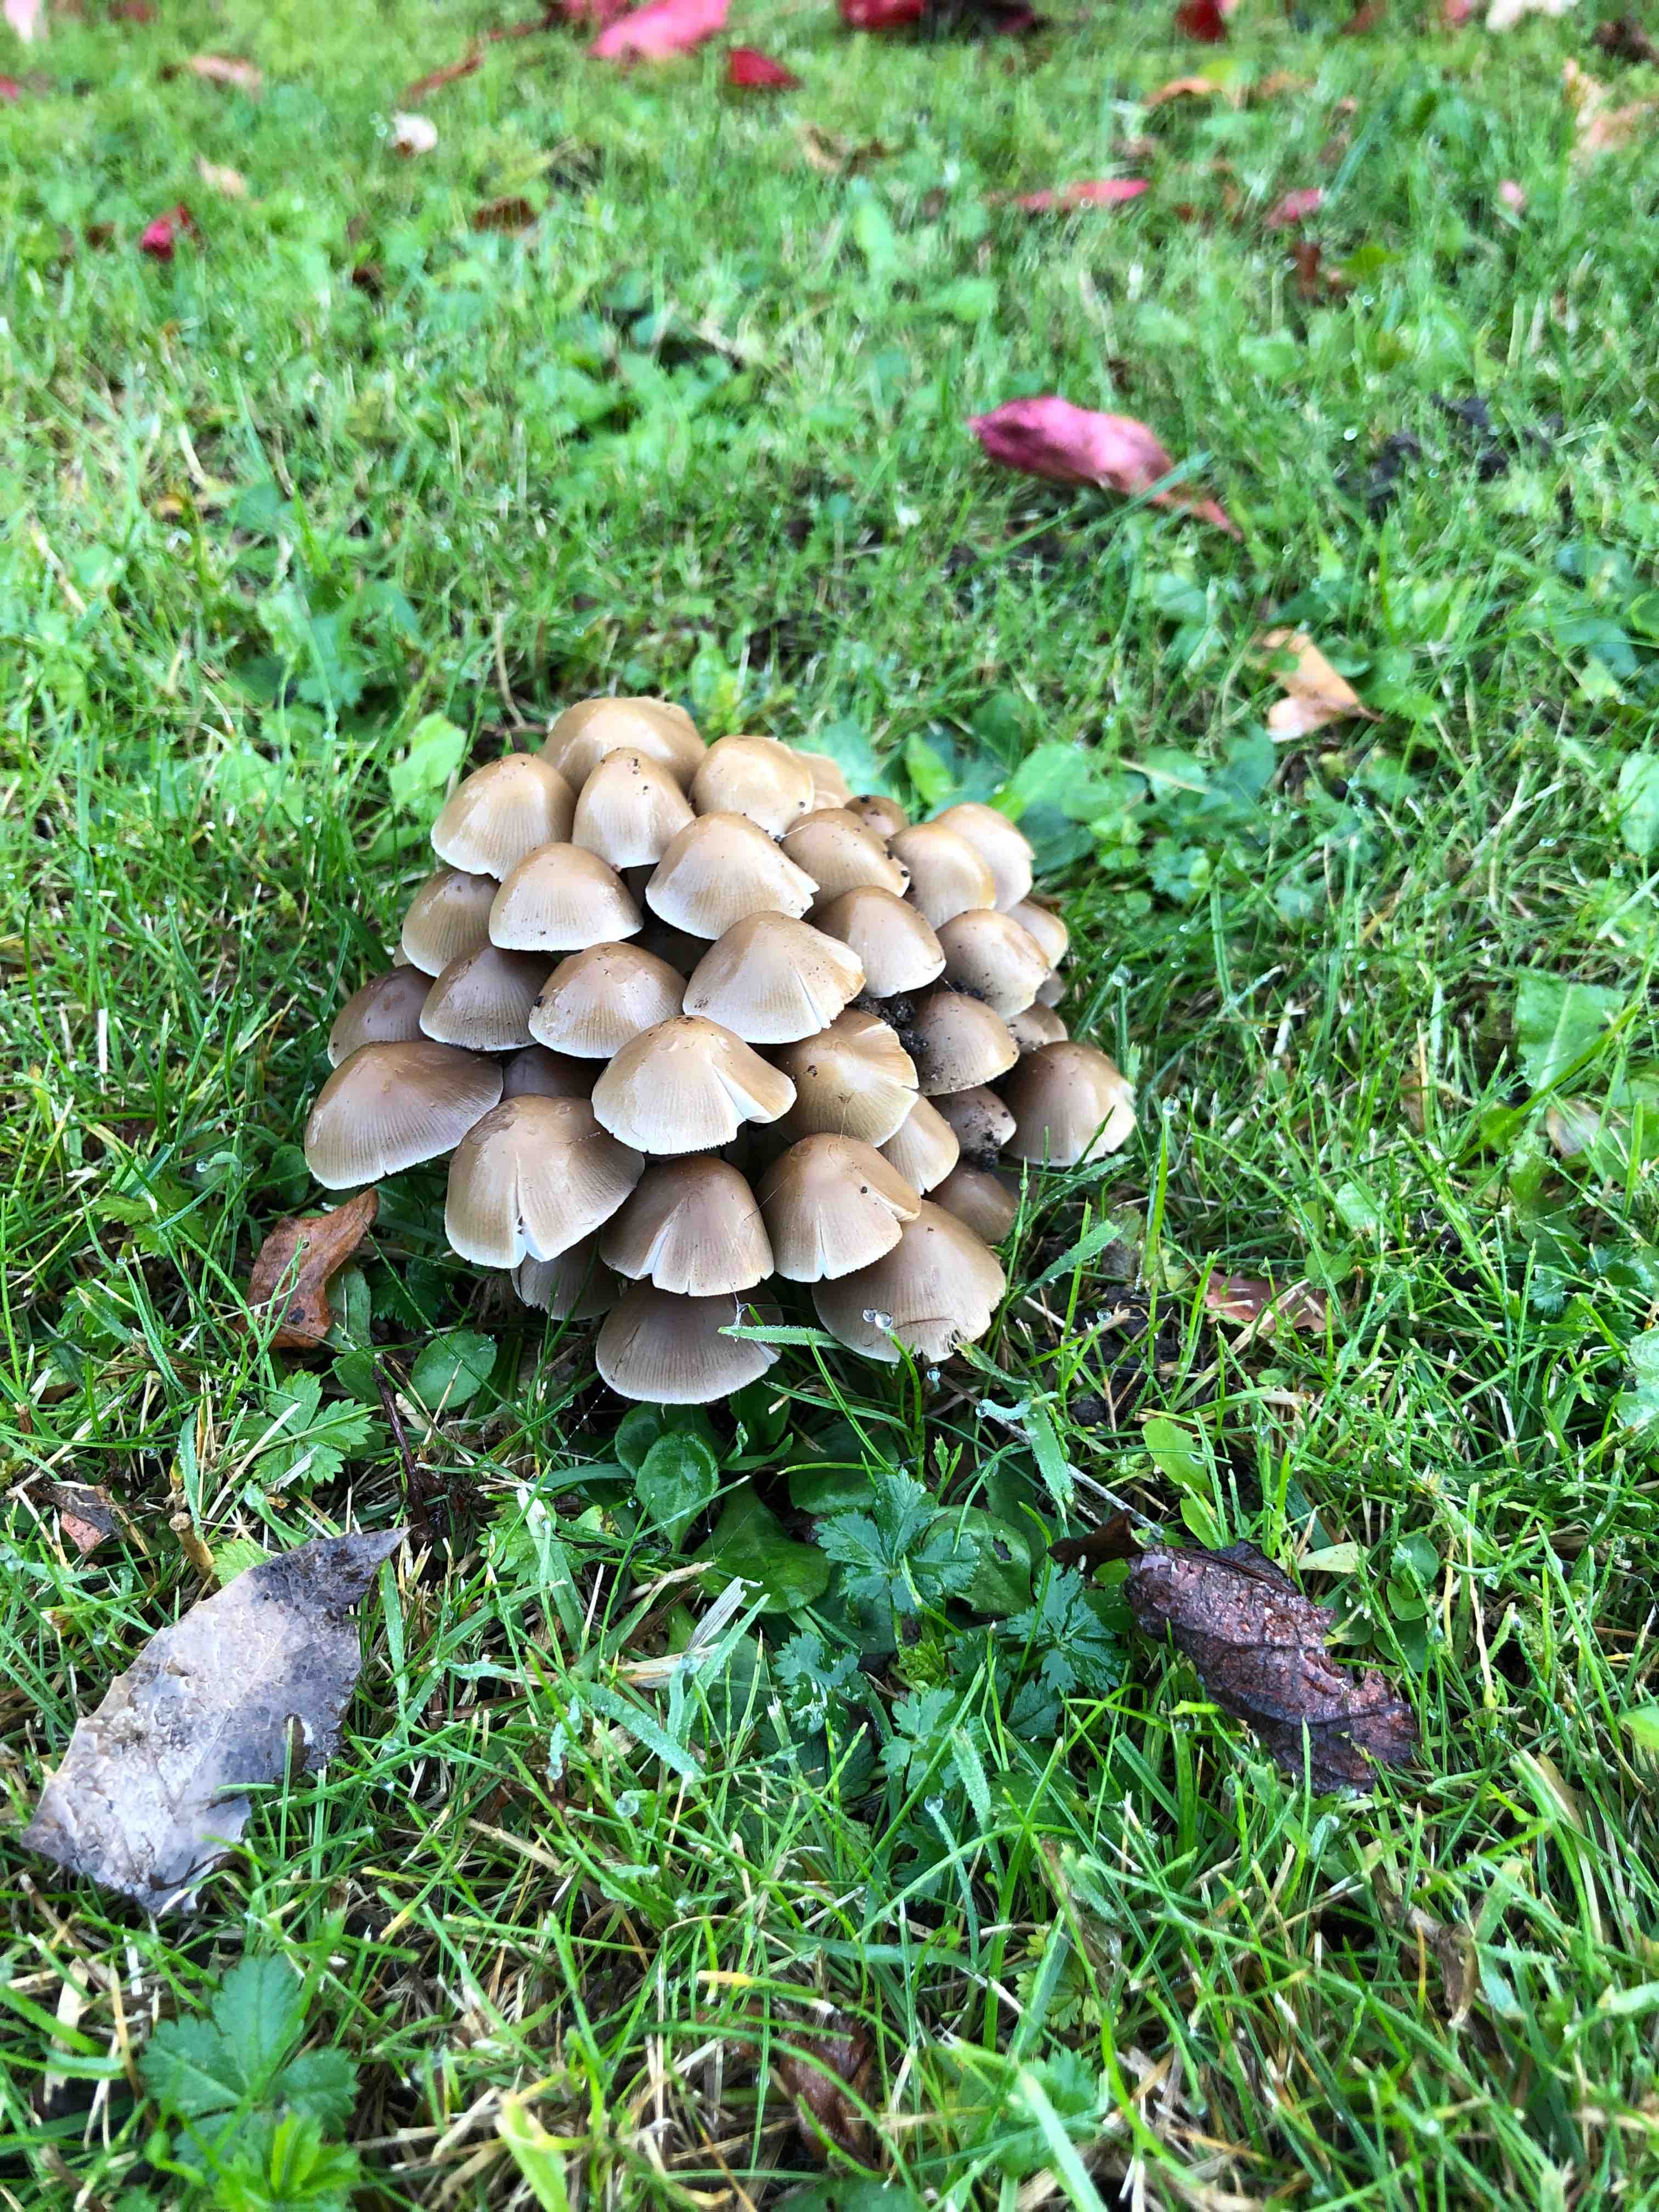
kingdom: Fungi
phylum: Basidiomycota
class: Agaricomycetes
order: Agaricales
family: Psathyrellaceae
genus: Britzelmayria
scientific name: Britzelmayria multipedata
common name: knippe-mørkhat
